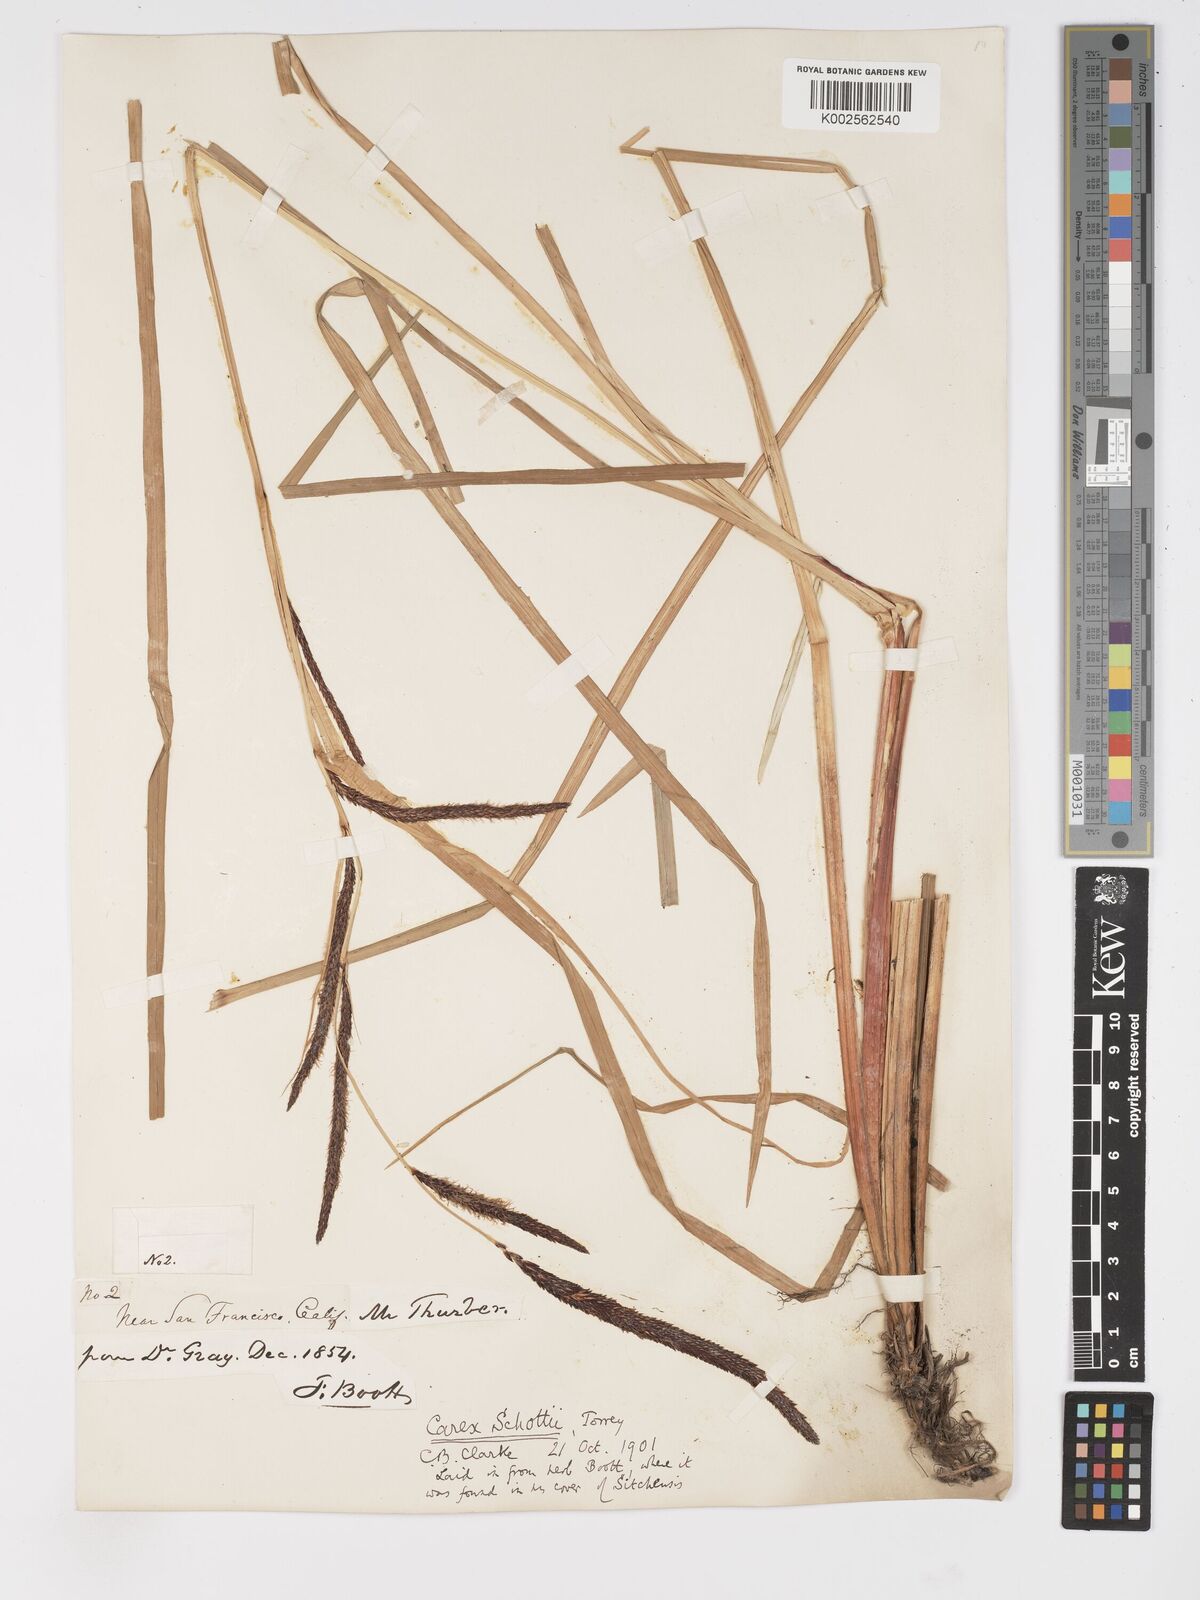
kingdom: Plantae
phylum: Tracheophyta
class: Liliopsida
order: Poales
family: Cyperaceae
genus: Carex
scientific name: Carex schottii
